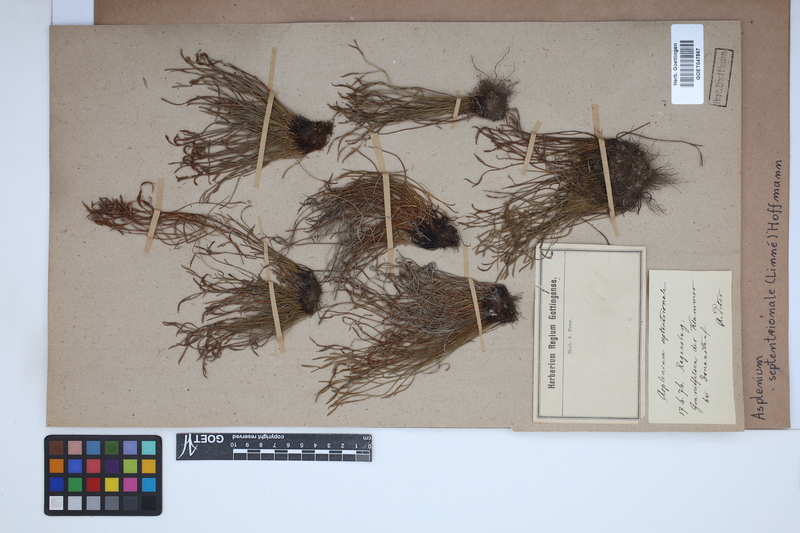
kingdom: Plantae
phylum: Tracheophyta
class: Polypodiopsida
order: Polypodiales
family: Aspleniaceae
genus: Asplenium
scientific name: Asplenium septentrionale
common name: Forked spleenwort
